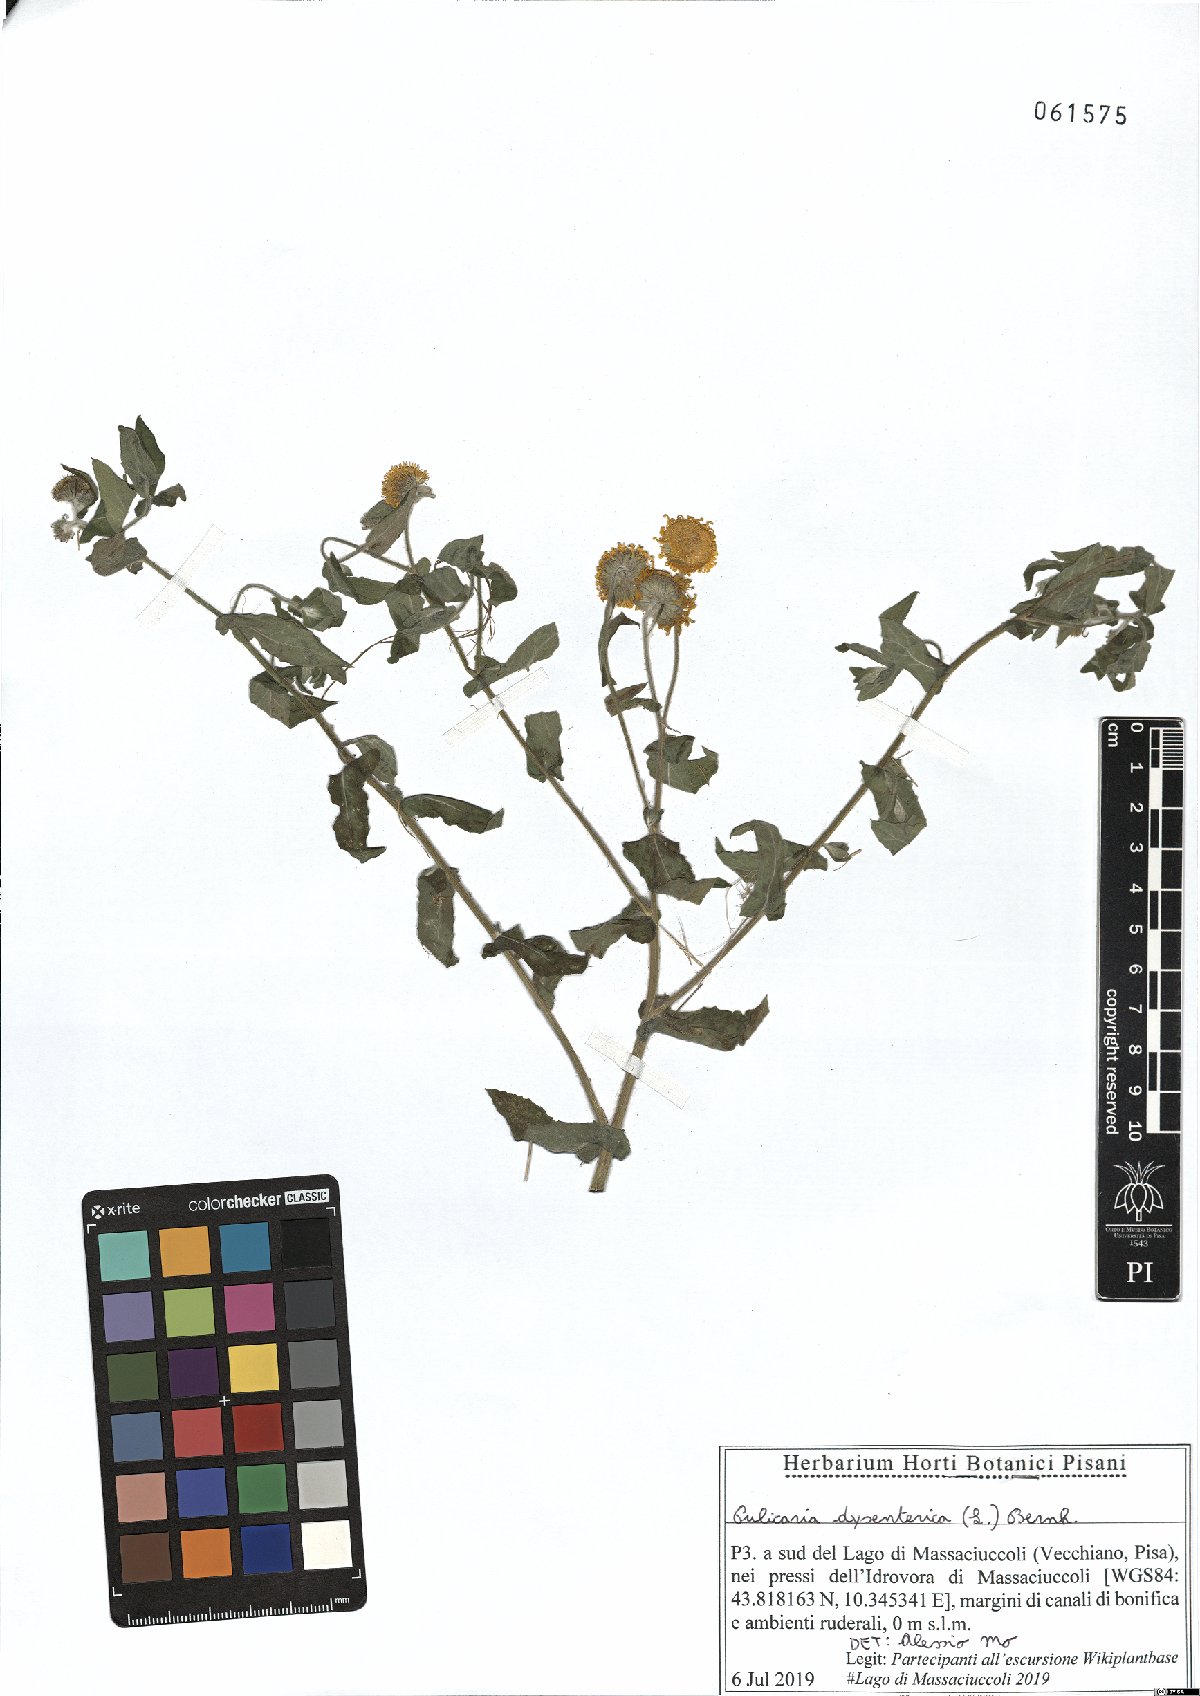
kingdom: Plantae
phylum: Tracheophyta
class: Magnoliopsida
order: Asterales
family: Asteraceae
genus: Pulicaria
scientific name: Pulicaria dysenterica
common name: Common fleabane
